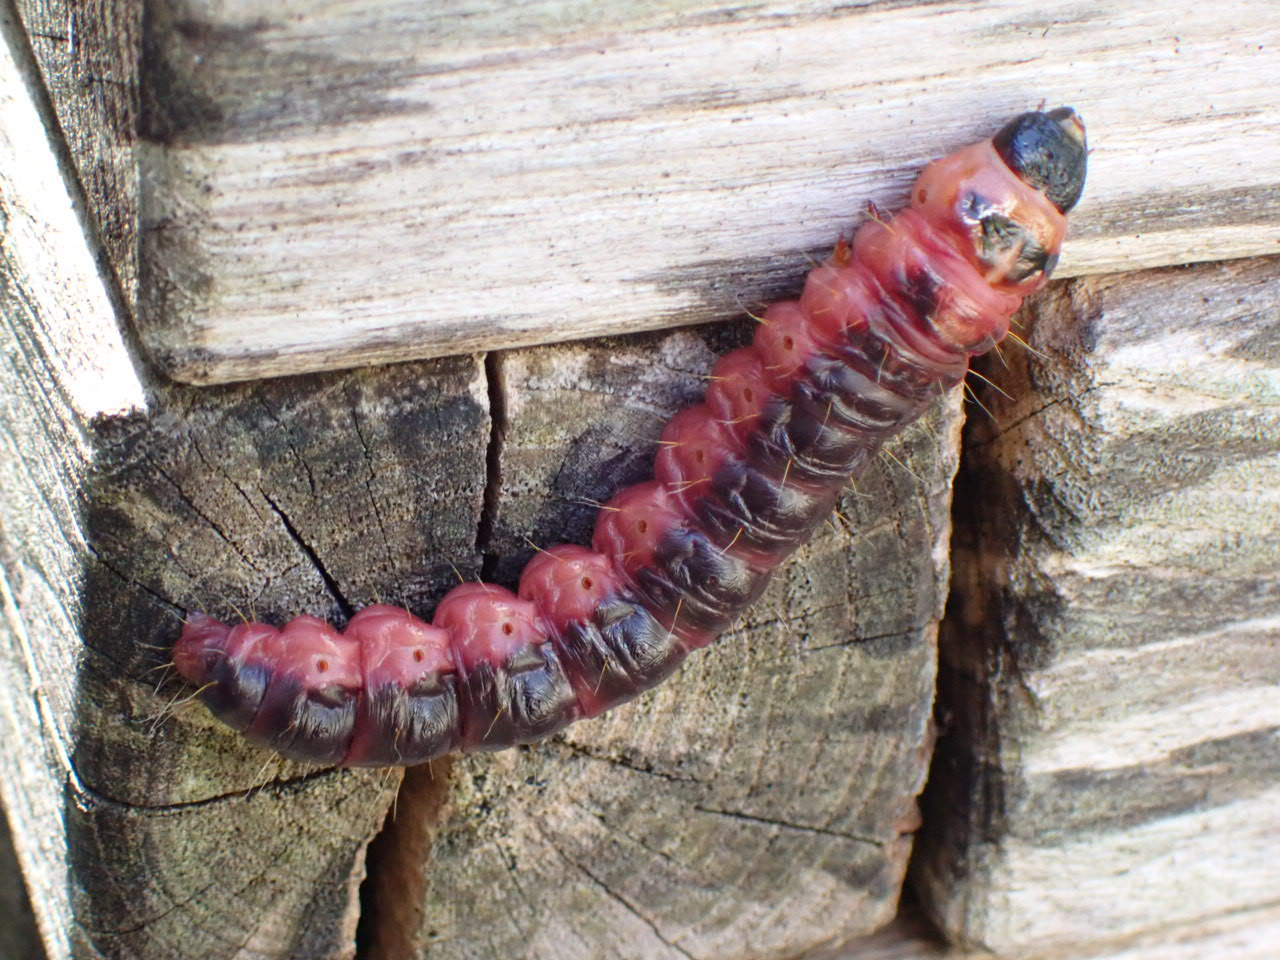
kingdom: Animalia
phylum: Arthropoda
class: Insecta
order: Lepidoptera
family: Cossidae
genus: Cossus
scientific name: Cossus cossus
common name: Pileborer
